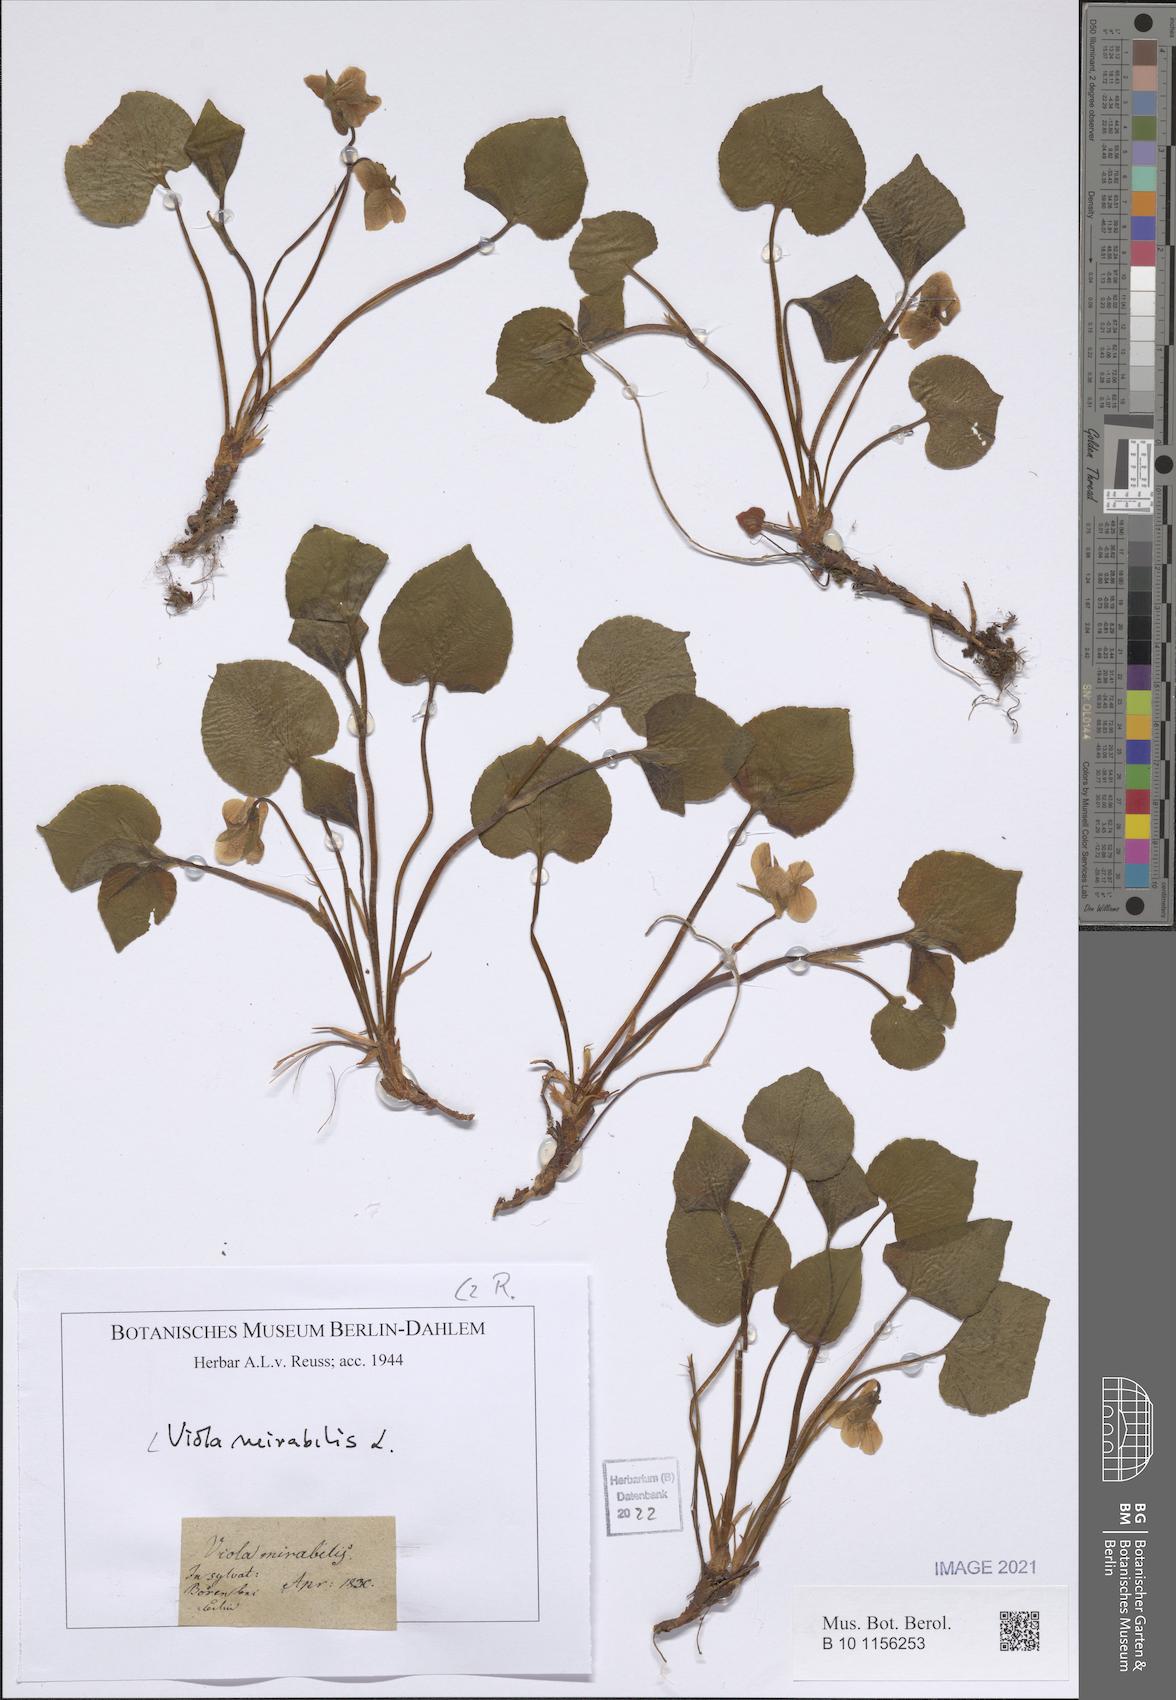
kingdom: Plantae
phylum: Tracheophyta
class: Magnoliopsida
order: Malpighiales
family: Violaceae
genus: Viola
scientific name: Viola mirabilis
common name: Wonder violet
